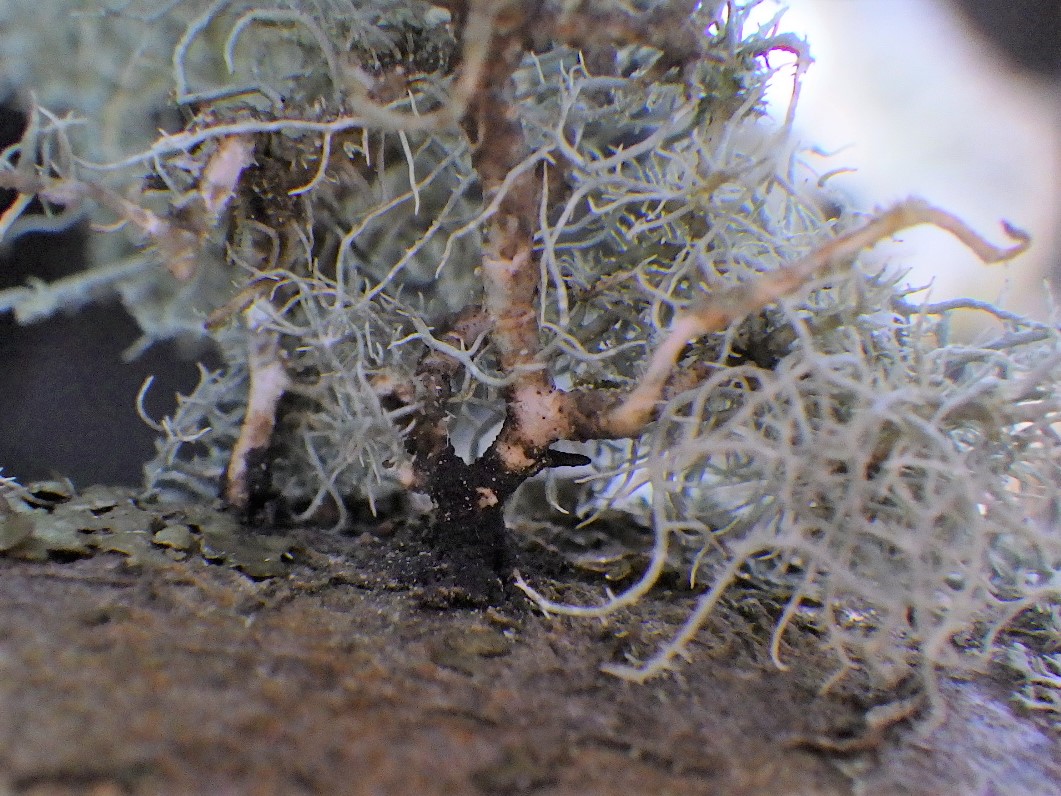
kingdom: Fungi
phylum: Ascomycota
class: Lecanoromycetes
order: Lecanorales
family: Parmeliaceae
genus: Usnea
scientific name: Usnea subfloridana
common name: busket skæglav
